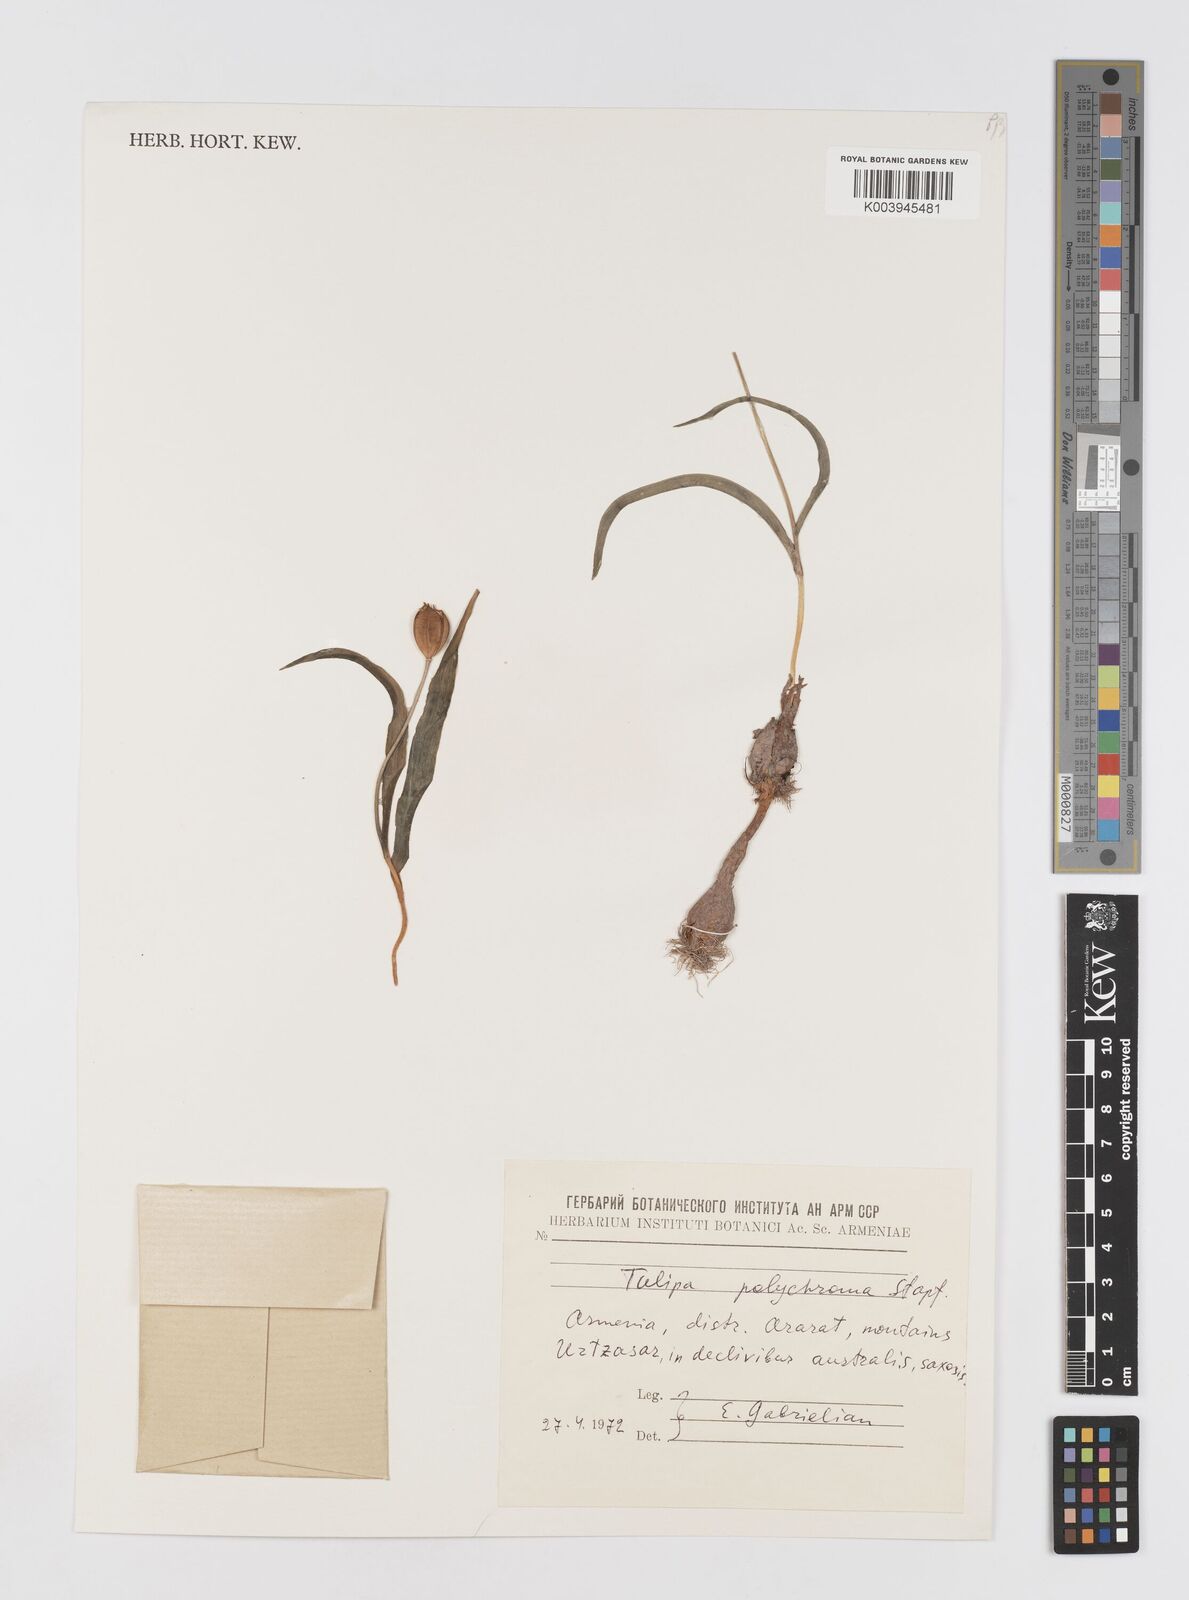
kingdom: Plantae
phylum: Tracheophyta
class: Liliopsida
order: Liliales
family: Liliaceae
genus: Tulipa
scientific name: Tulipa biflora
